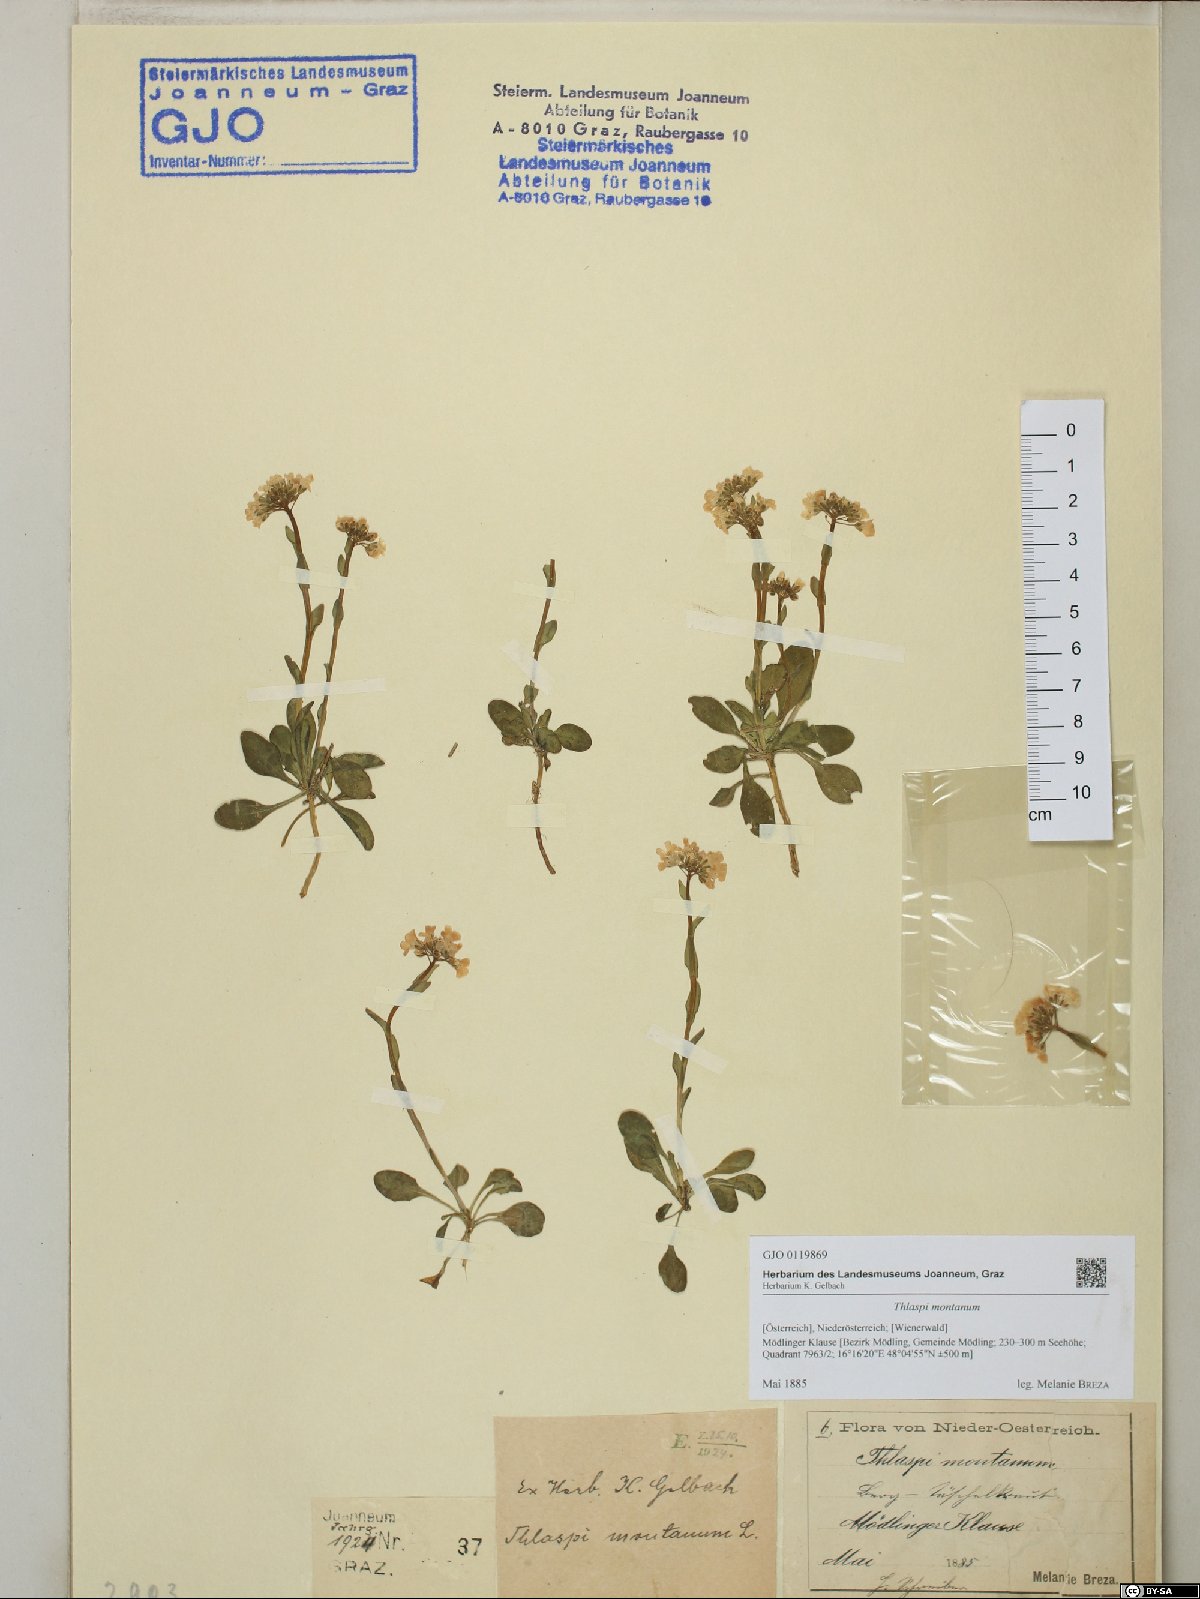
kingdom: Plantae
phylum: Tracheophyta
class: Magnoliopsida
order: Brassicales
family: Brassicaceae
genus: Noccaea
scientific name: Noccaea montana
